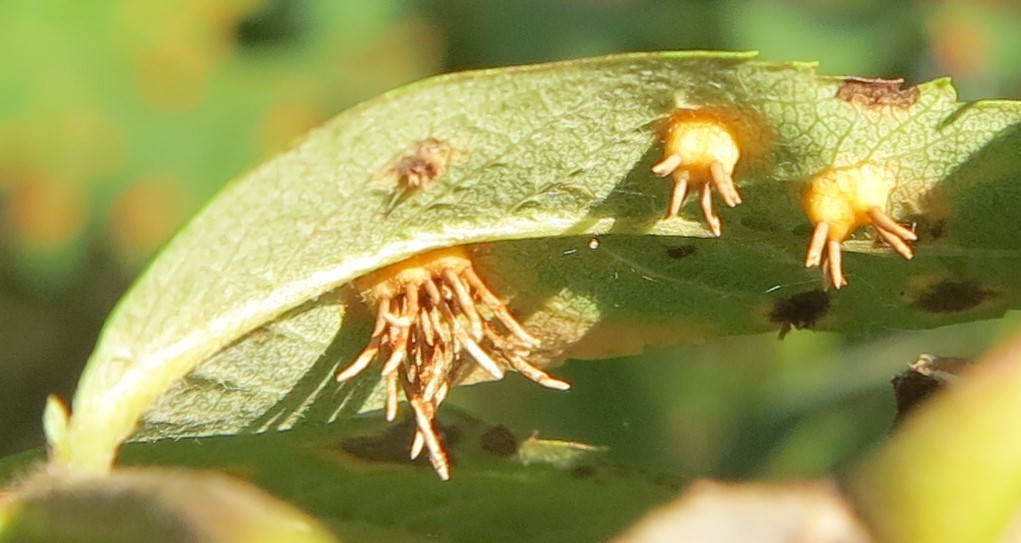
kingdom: Fungi
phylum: Basidiomycota
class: Pucciniomycetes
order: Pucciniales
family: Gymnosporangiaceae
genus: Gymnosporangium
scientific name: Gymnosporangium cornutum
